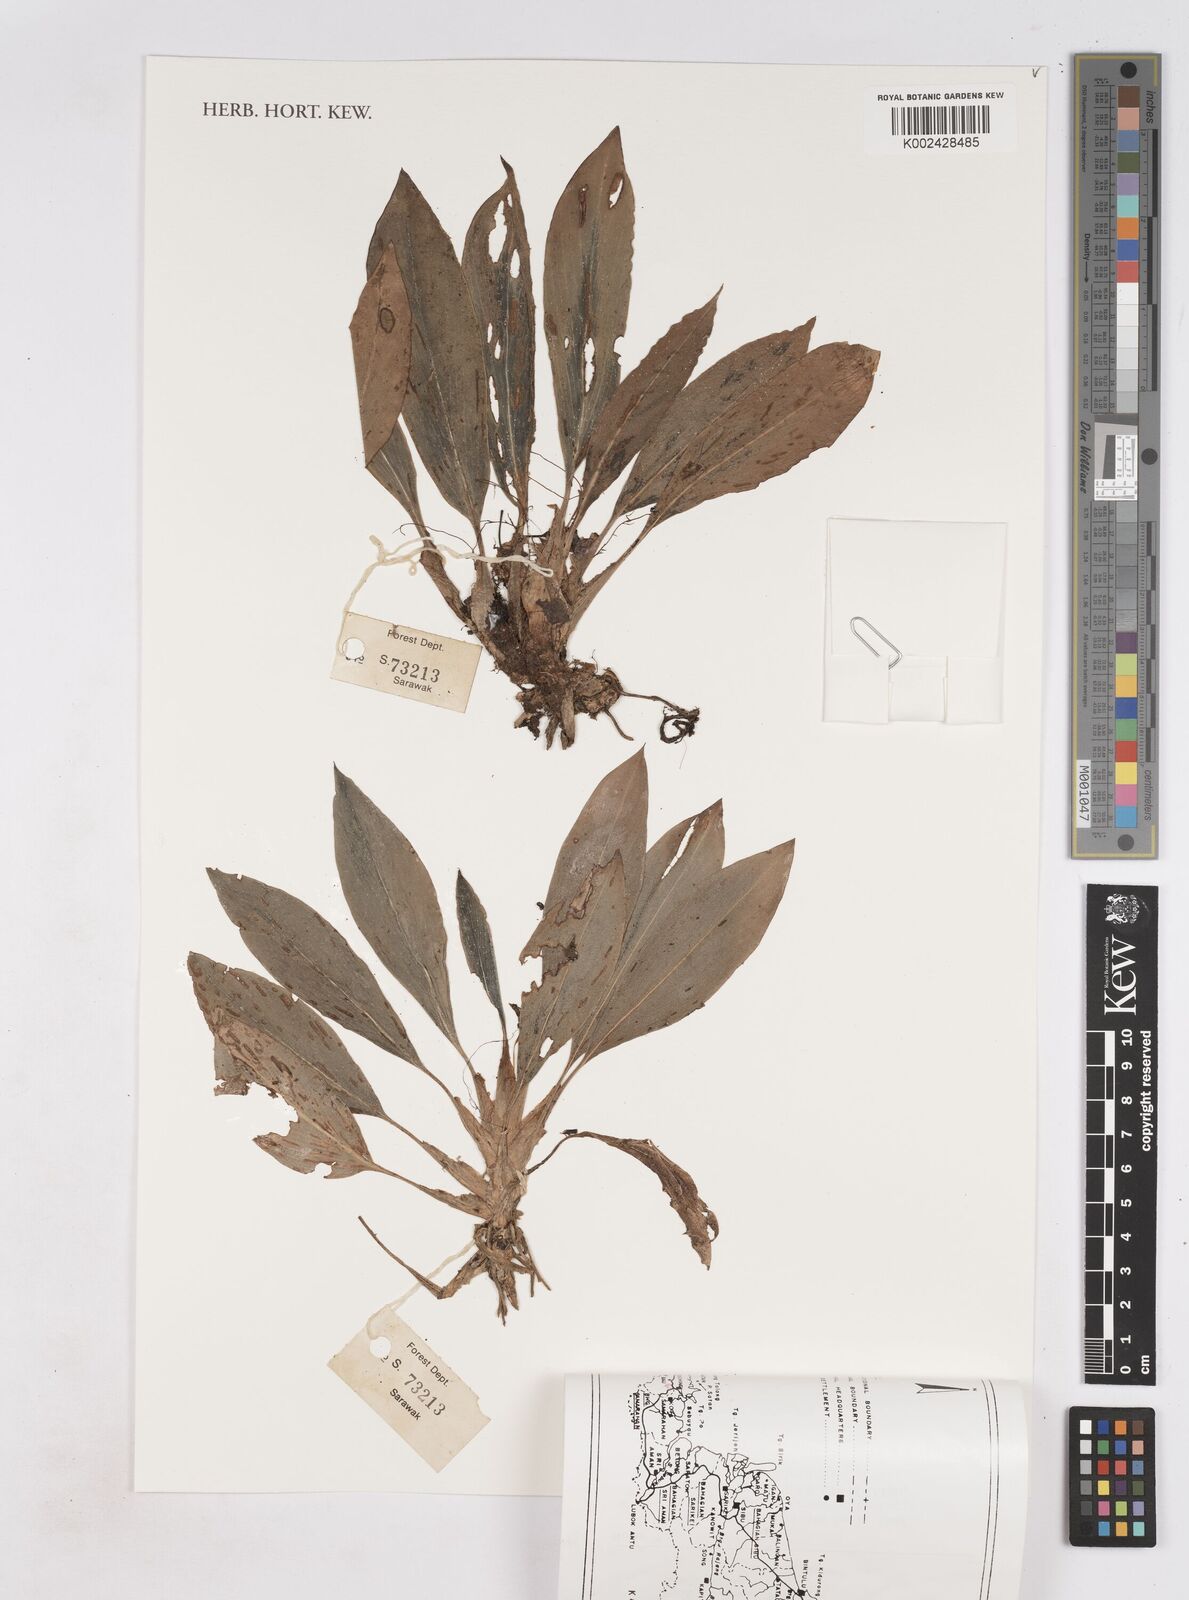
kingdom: Plantae
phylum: Tracheophyta
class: Liliopsida
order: Zingiberales
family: Zingiberaceae
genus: Boesenbergia
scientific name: Boesenbergia
